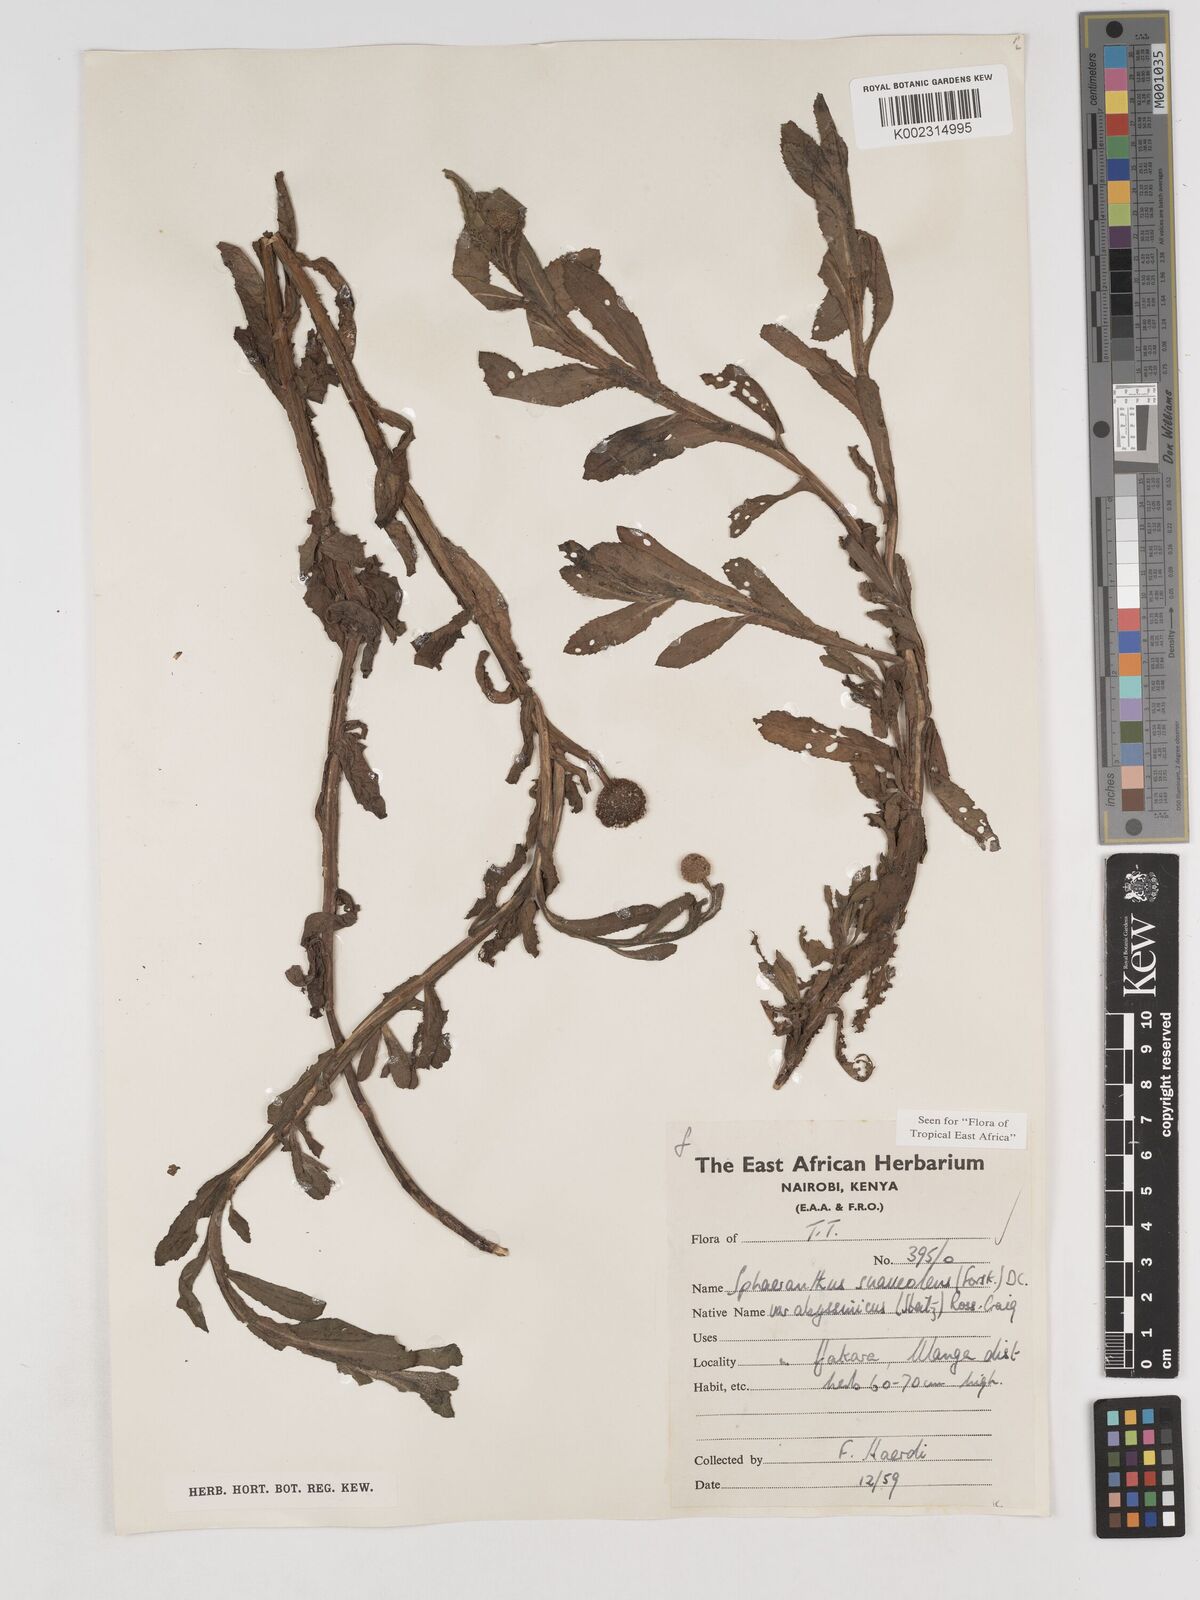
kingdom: Plantae
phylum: Tracheophyta
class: Magnoliopsida
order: Asterales
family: Asteraceae
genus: Sphaeranthus
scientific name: Sphaeranthus suaveolens
